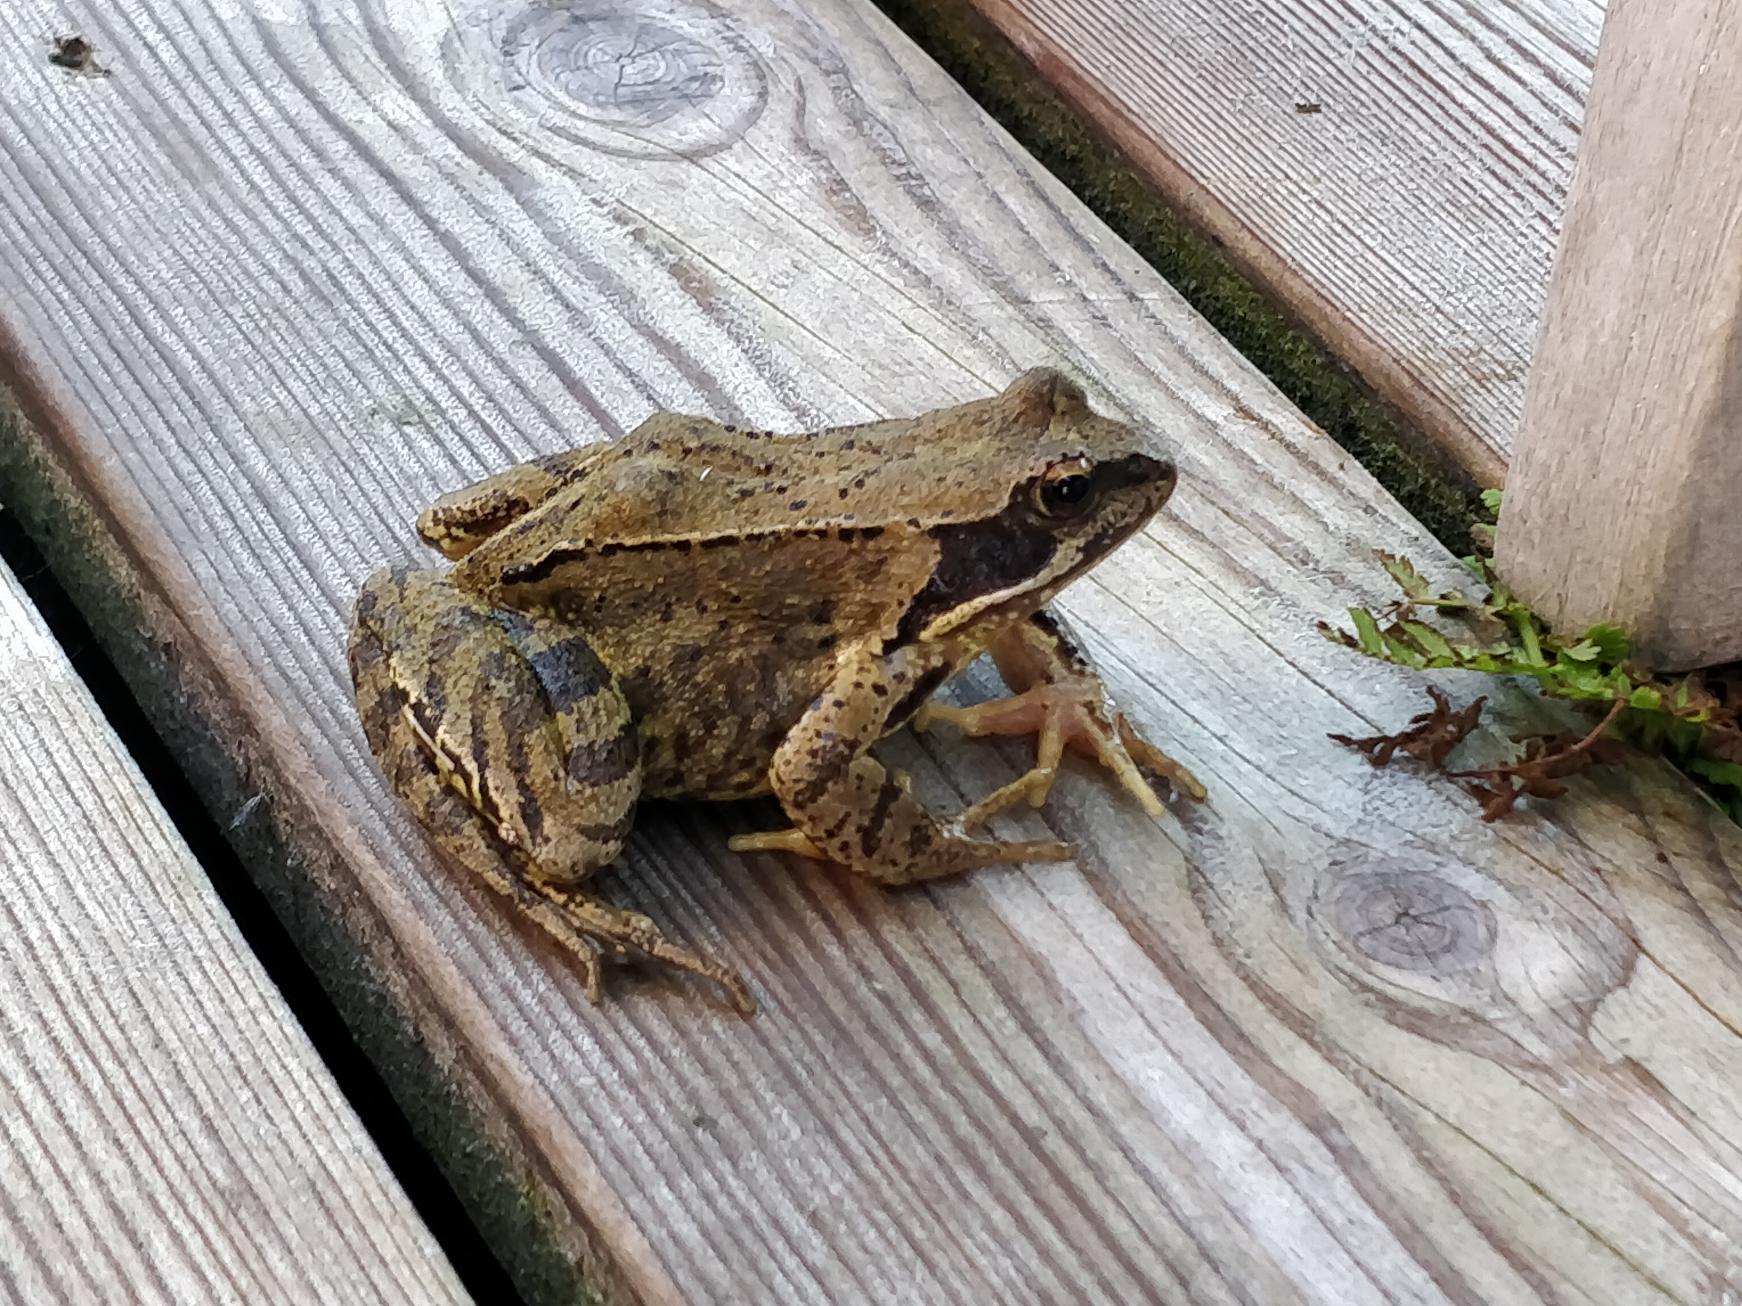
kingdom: Animalia
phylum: Chordata
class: Amphibia
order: Anura
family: Ranidae
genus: Rana
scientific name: Rana temporaria
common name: Butsnudet frø
